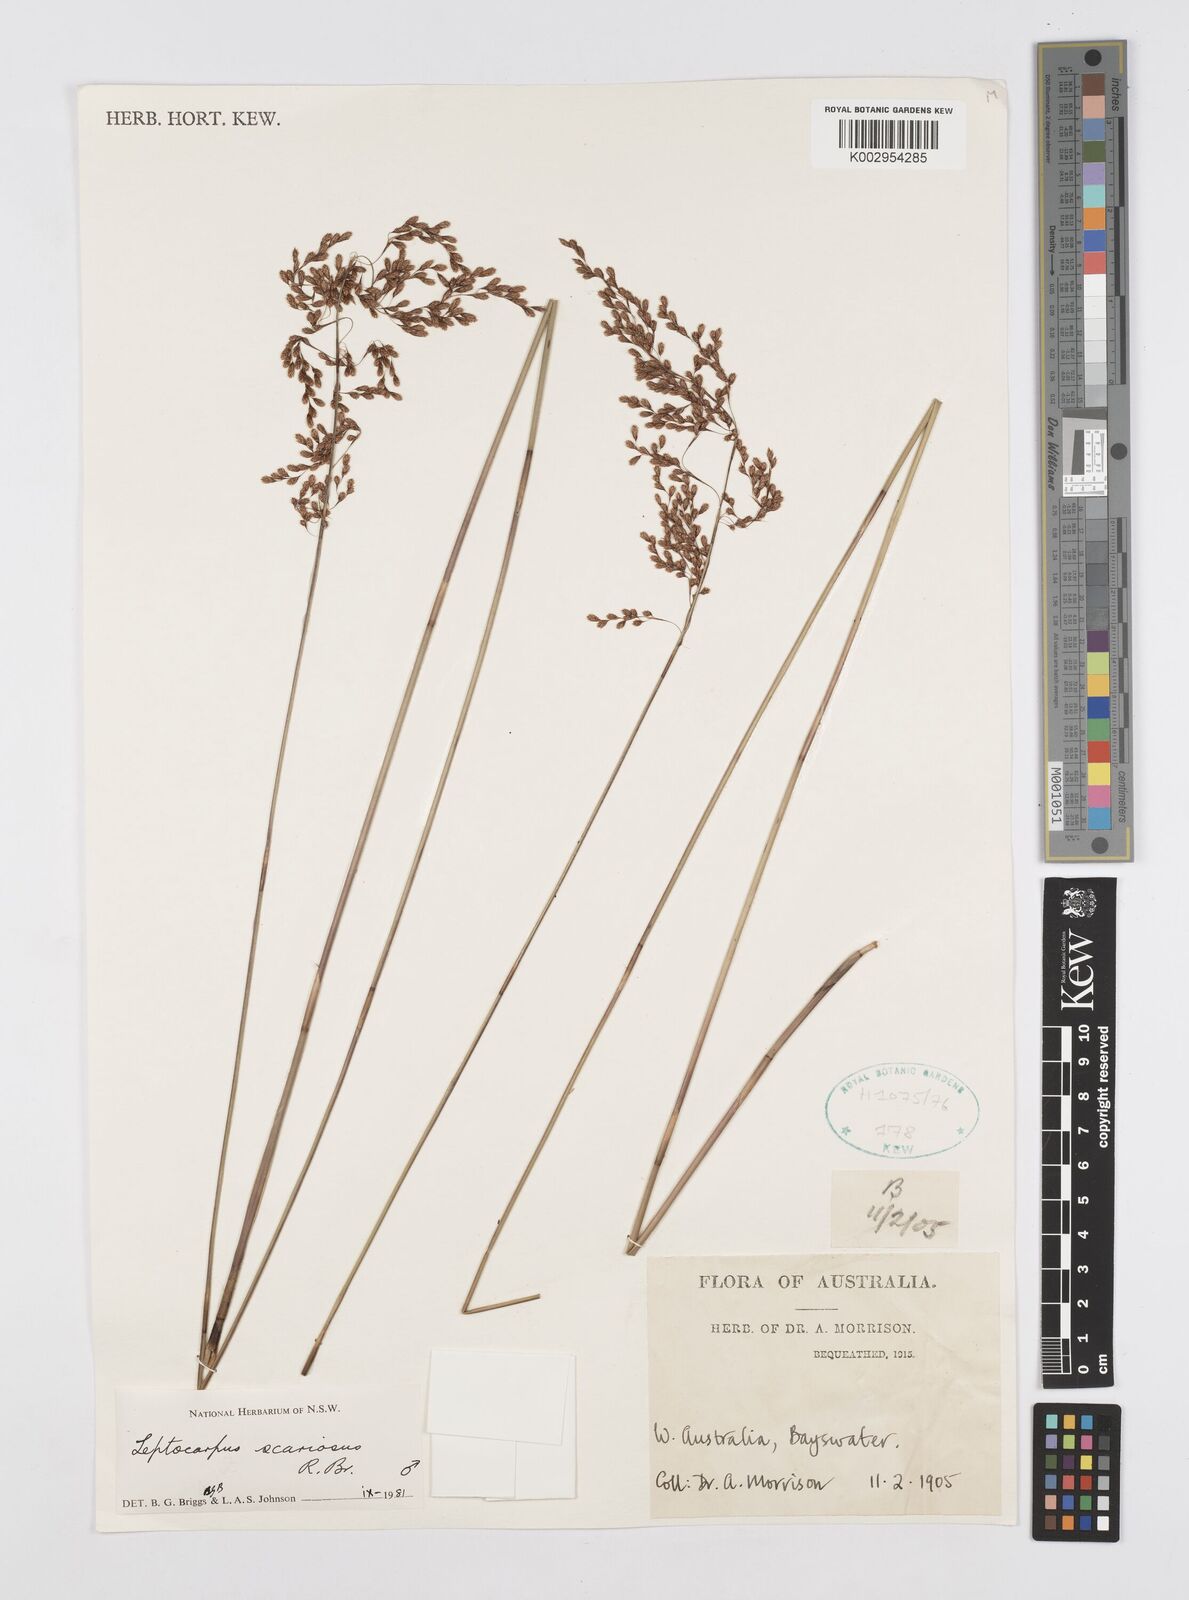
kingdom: Plantae
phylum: Tracheophyta
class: Liliopsida
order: Poales
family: Restionaceae
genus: Leptocarpus
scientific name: Leptocarpus scariosus
